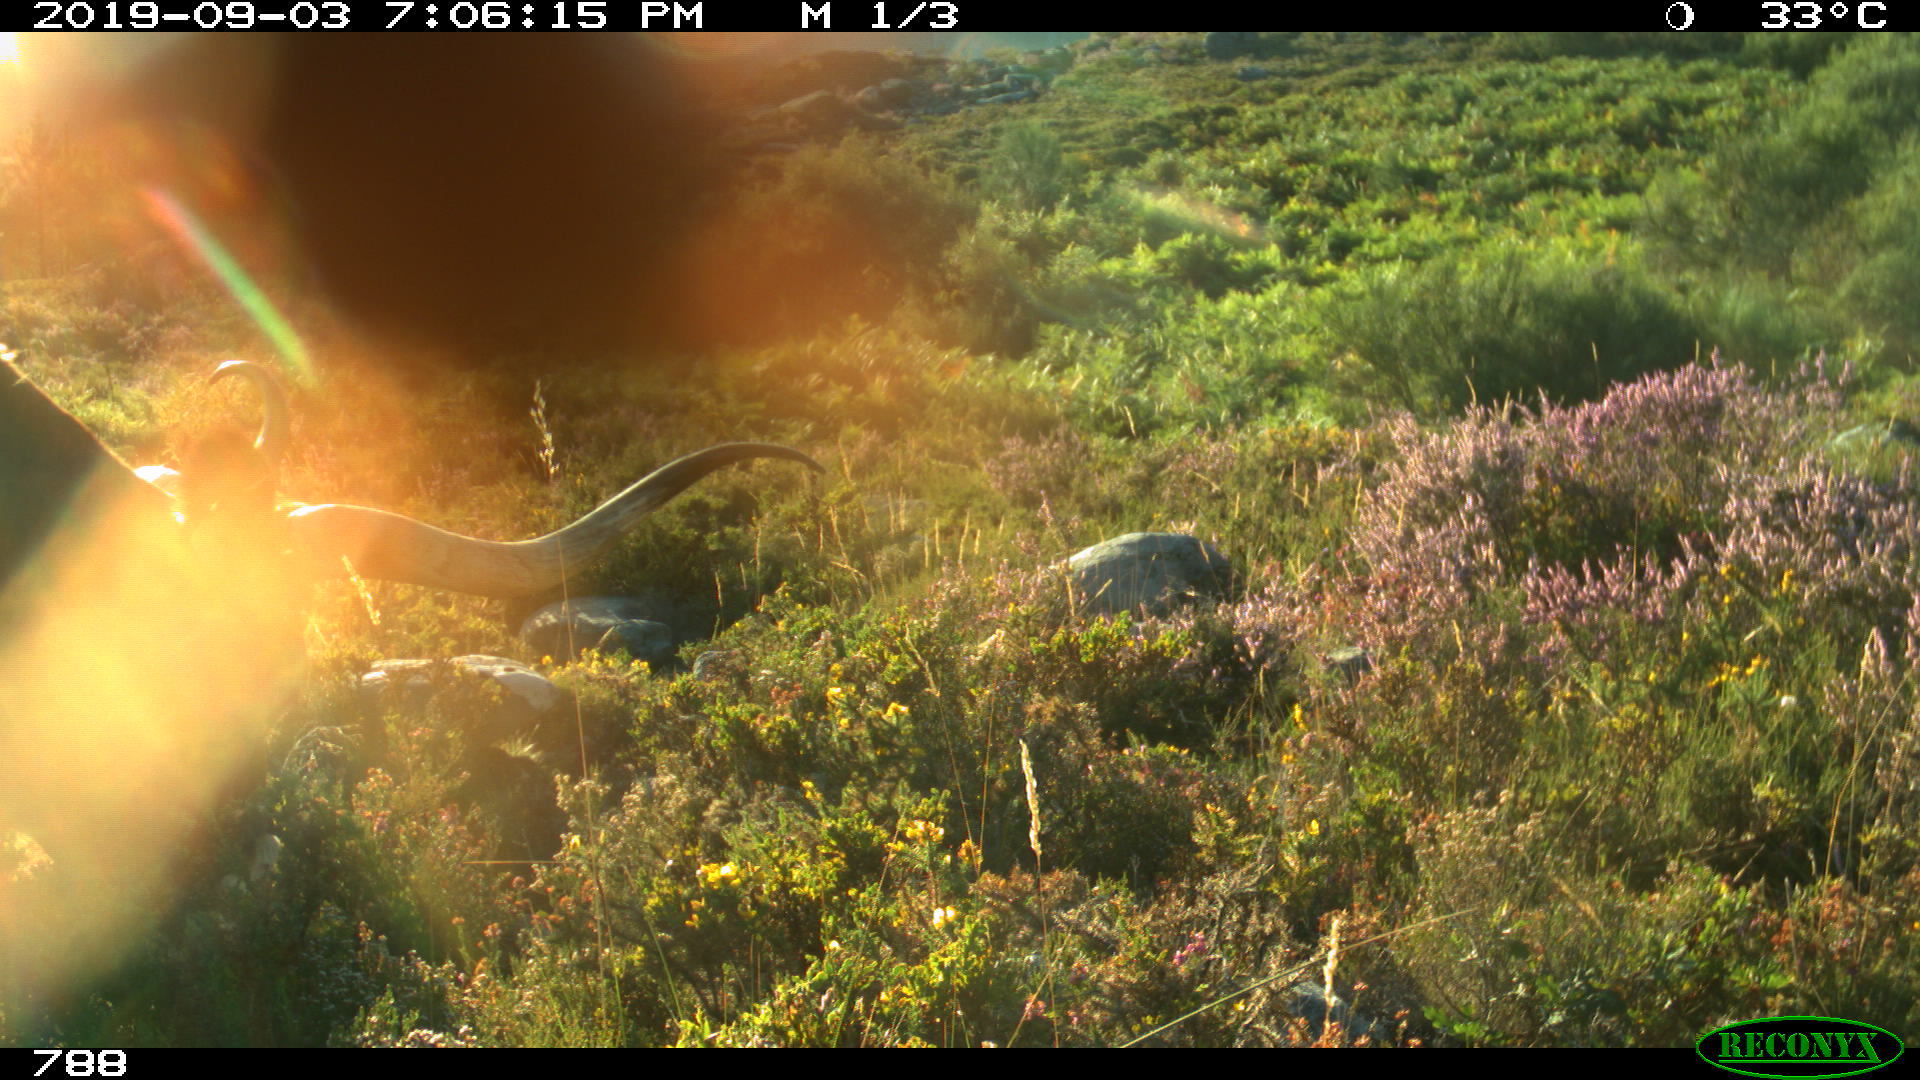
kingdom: Animalia
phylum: Chordata
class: Mammalia
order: Artiodactyla
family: Bovidae
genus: Bos
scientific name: Bos taurus
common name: Domesticated cattle
